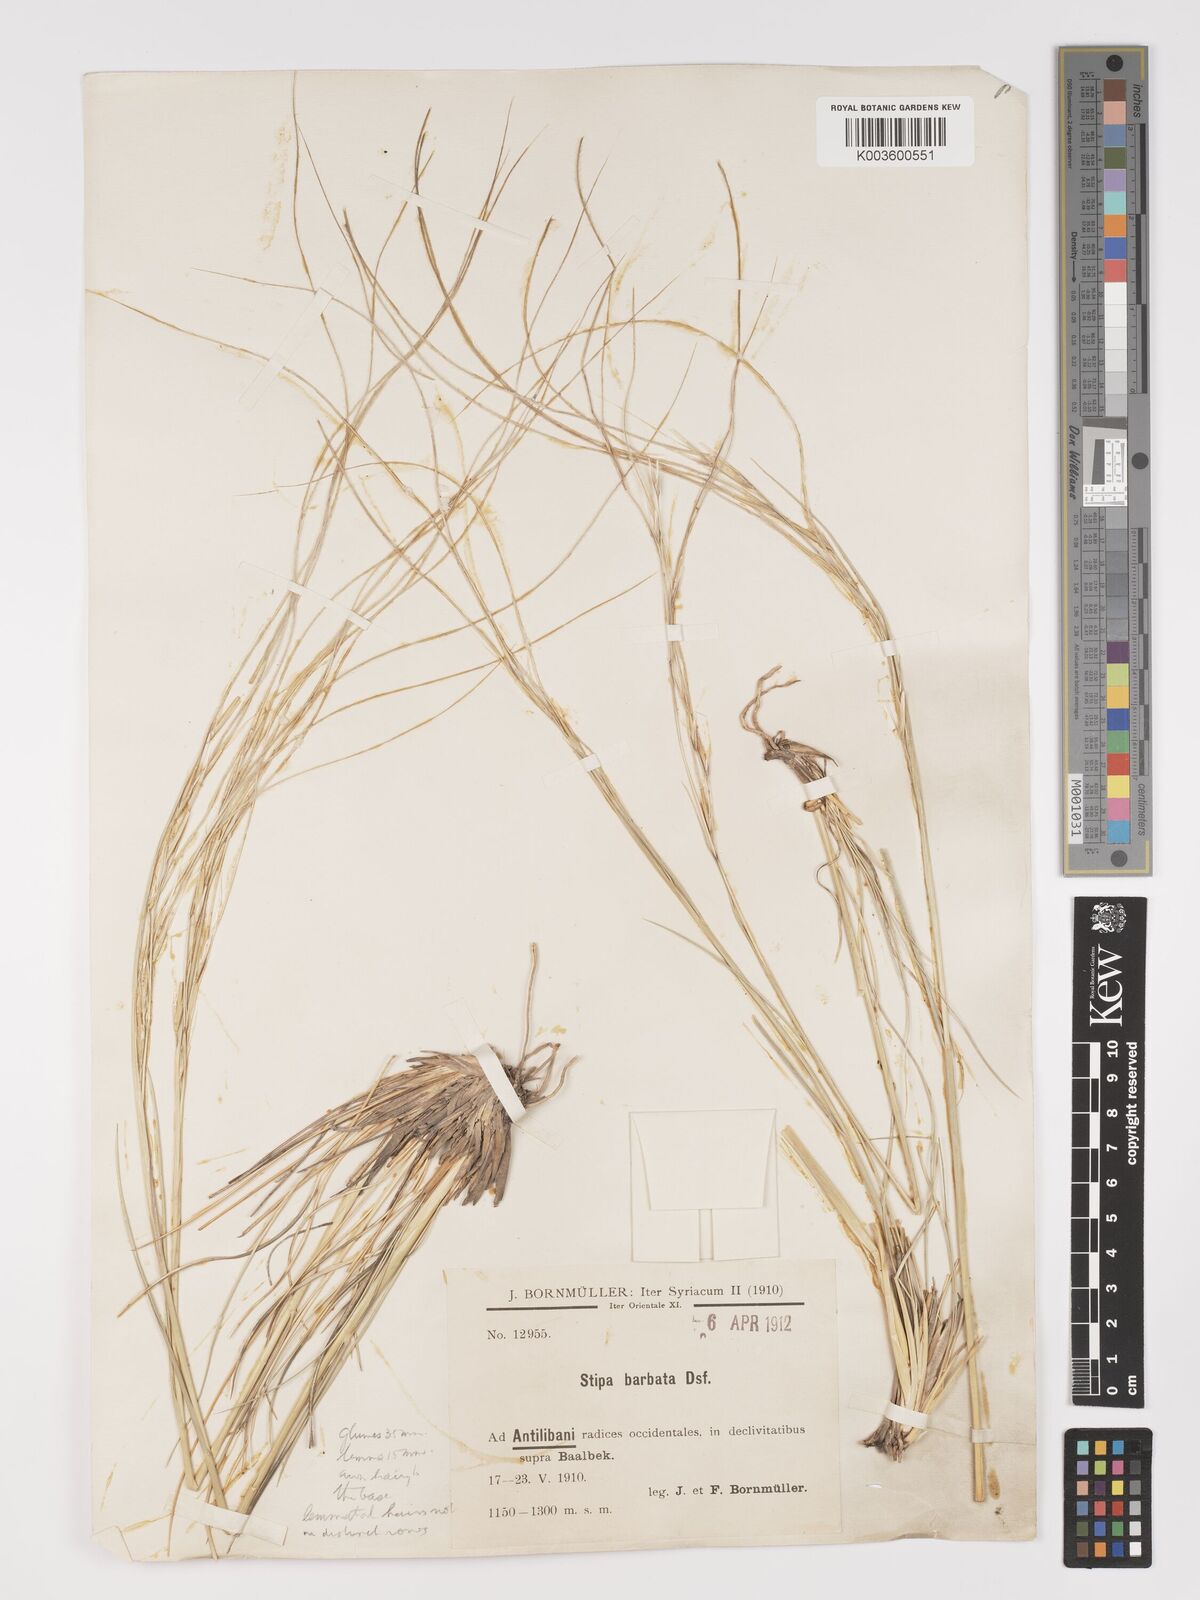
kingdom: Plantae
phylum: Tracheophyta
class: Liliopsida
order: Poales
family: Poaceae
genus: Stipa
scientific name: Stipa barbata
